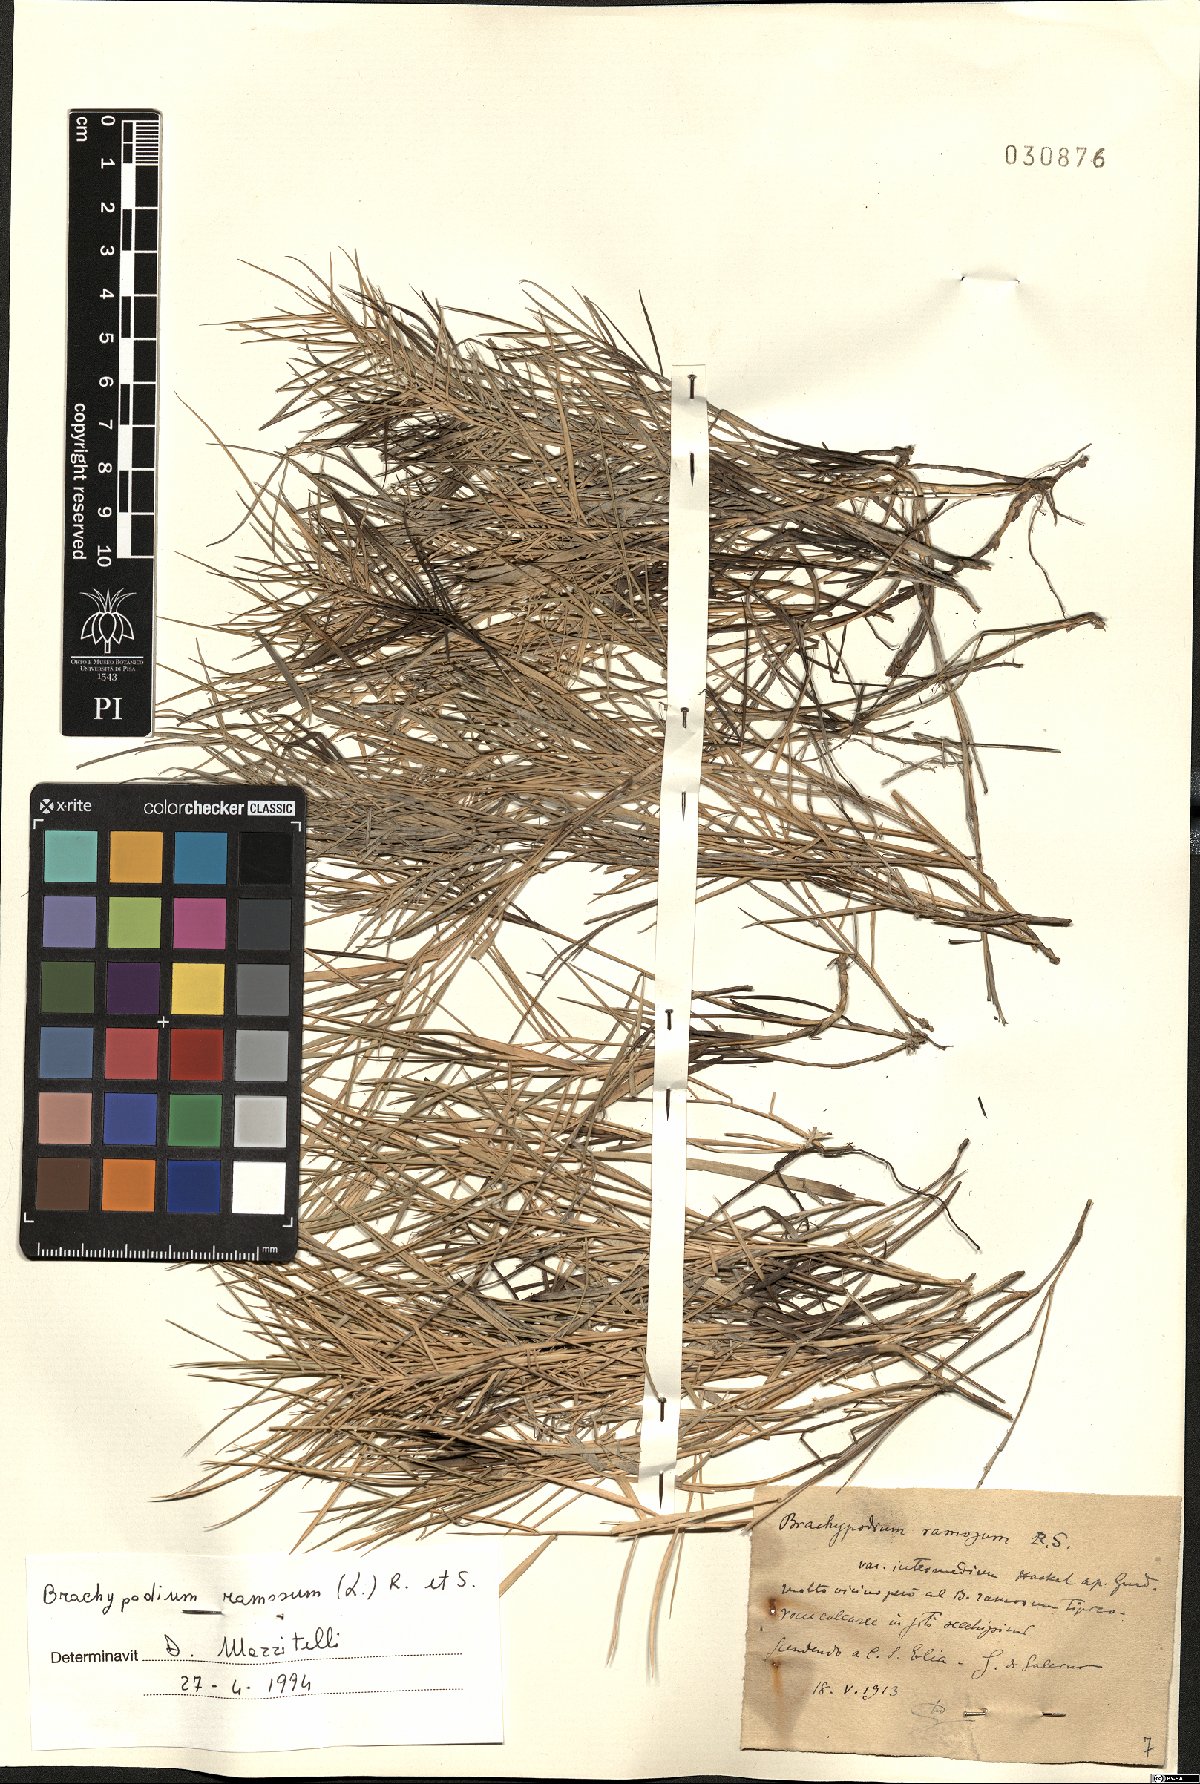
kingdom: Plantae
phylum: Tracheophyta
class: Liliopsida
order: Poales
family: Poaceae
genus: Brachypodium
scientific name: Brachypodium retusum
